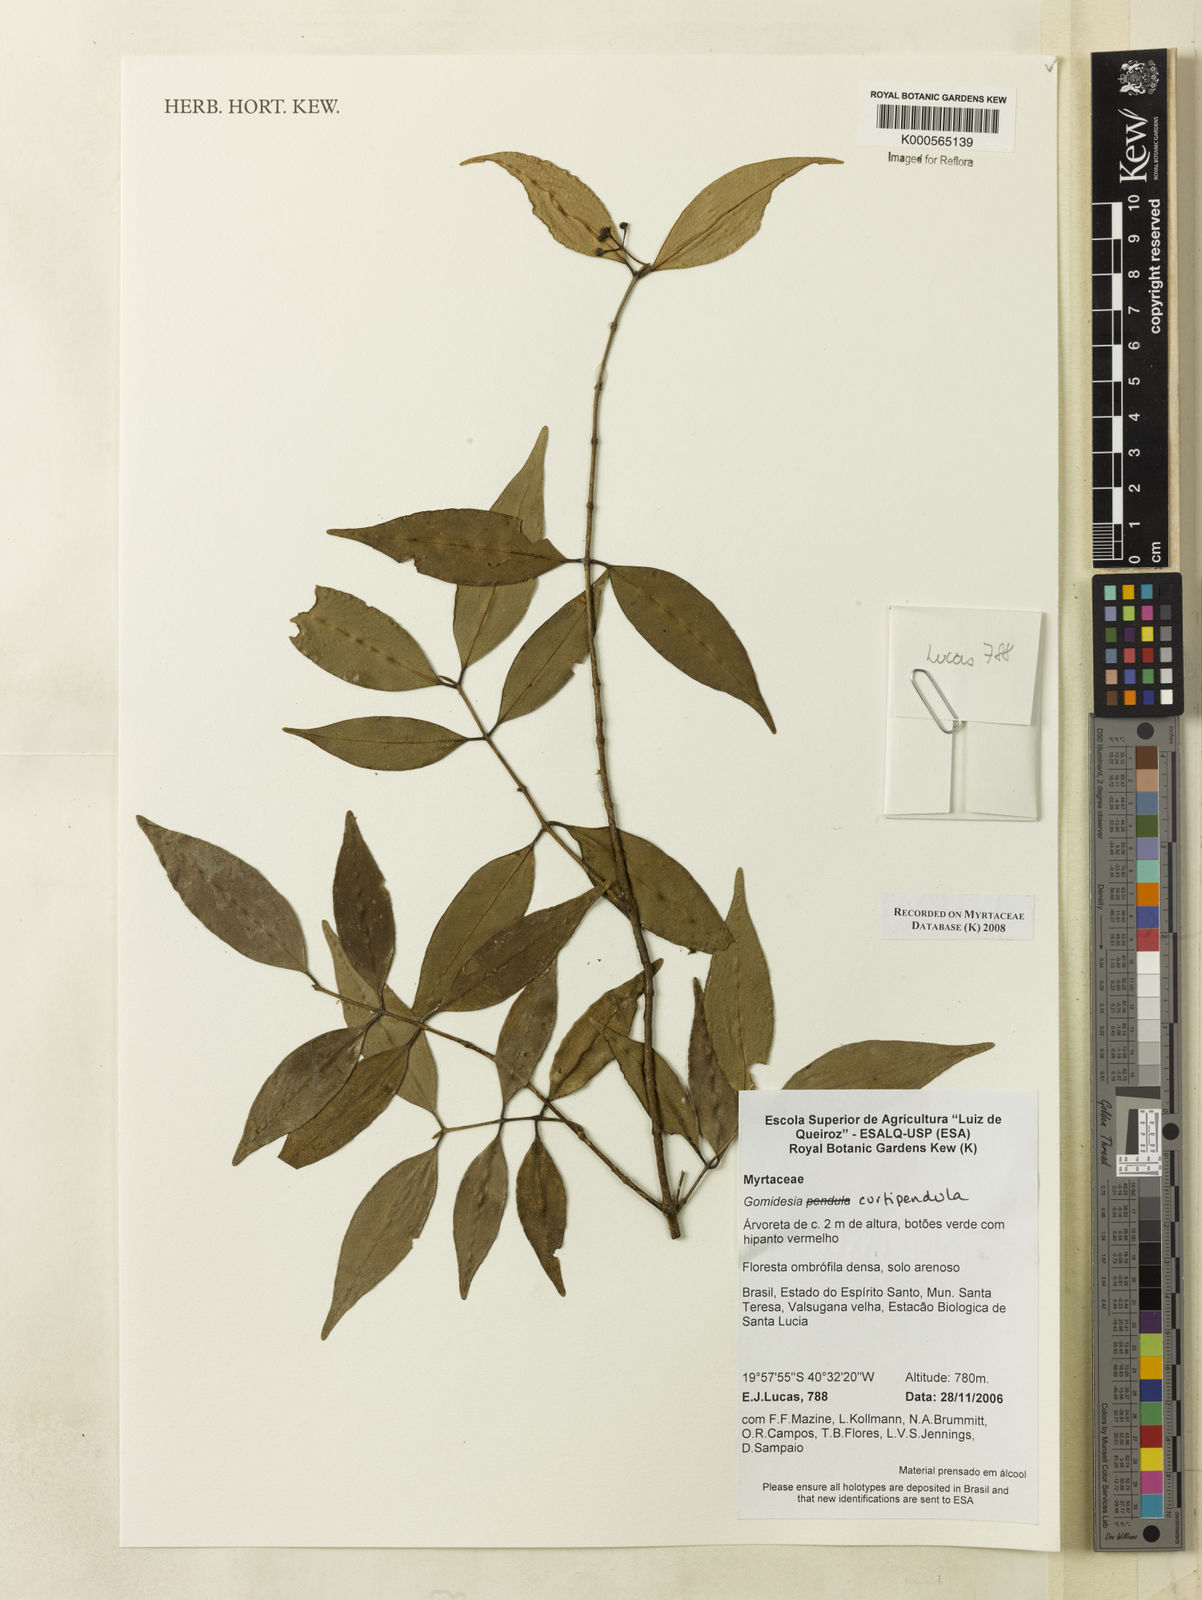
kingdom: Plantae
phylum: Tracheophyta
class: Magnoliopsida
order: Myrtales
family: Myrtaceae
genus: Myrcia
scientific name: Myrcia curtipendula
